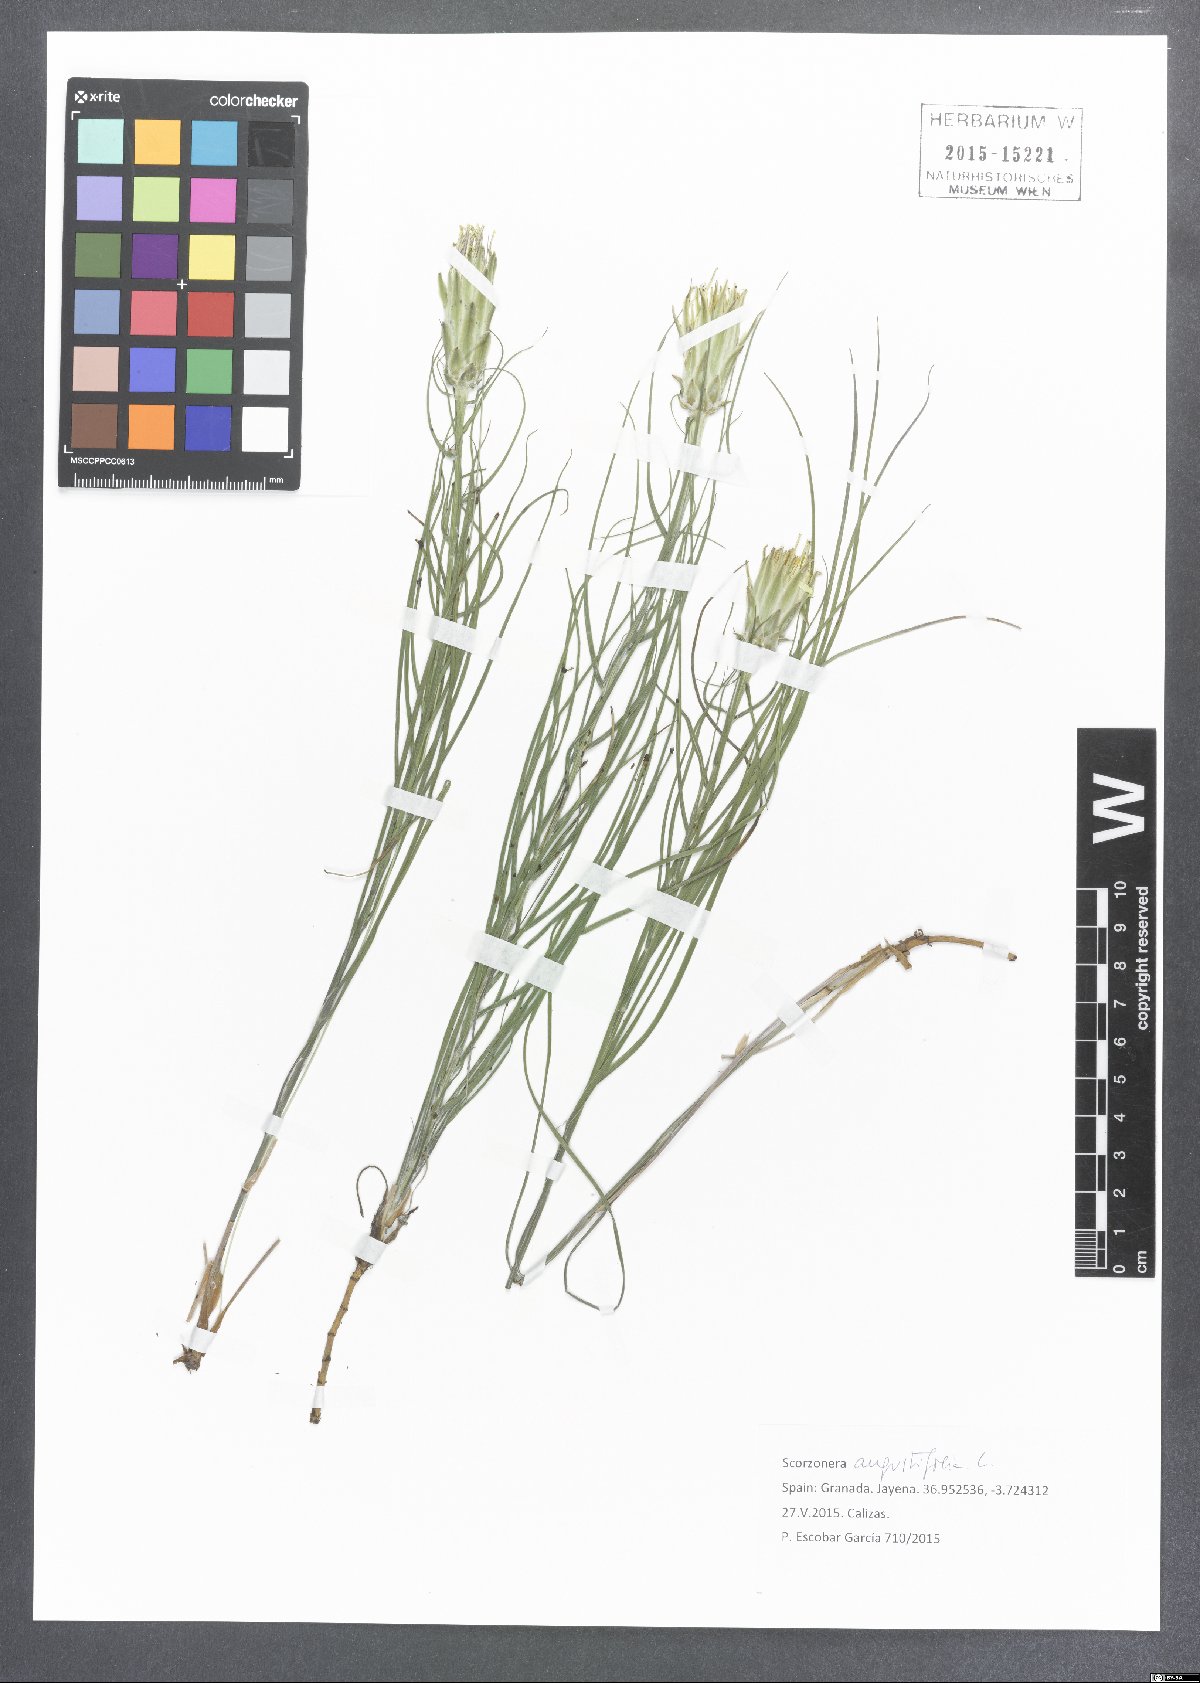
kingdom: Plantae
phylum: Tracheophyta
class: Magnoliopsida
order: Asterales
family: Asteraceae
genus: Scorzonera
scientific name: Scorzonera angustifolia
